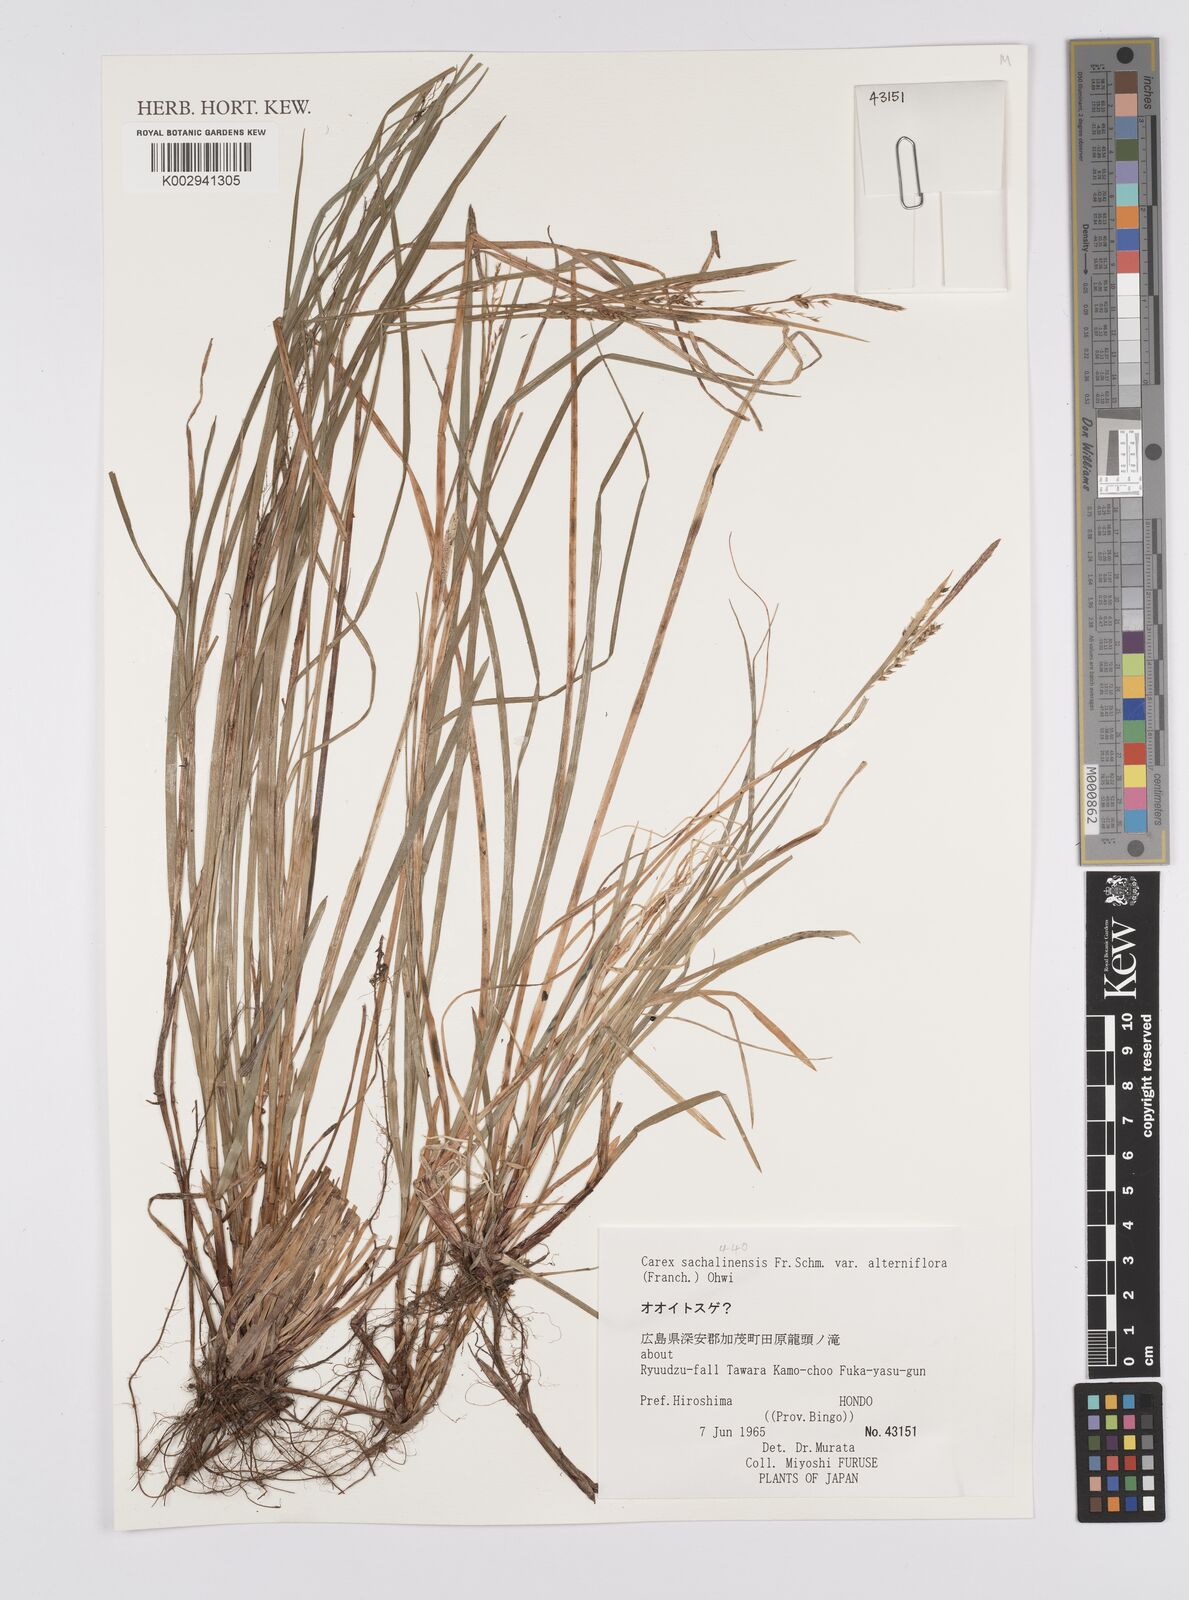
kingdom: Plantae
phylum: Tracheophyta
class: Liliopsida
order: Poales
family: Cyperaceae
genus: Carex
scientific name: Carex pisiformis
